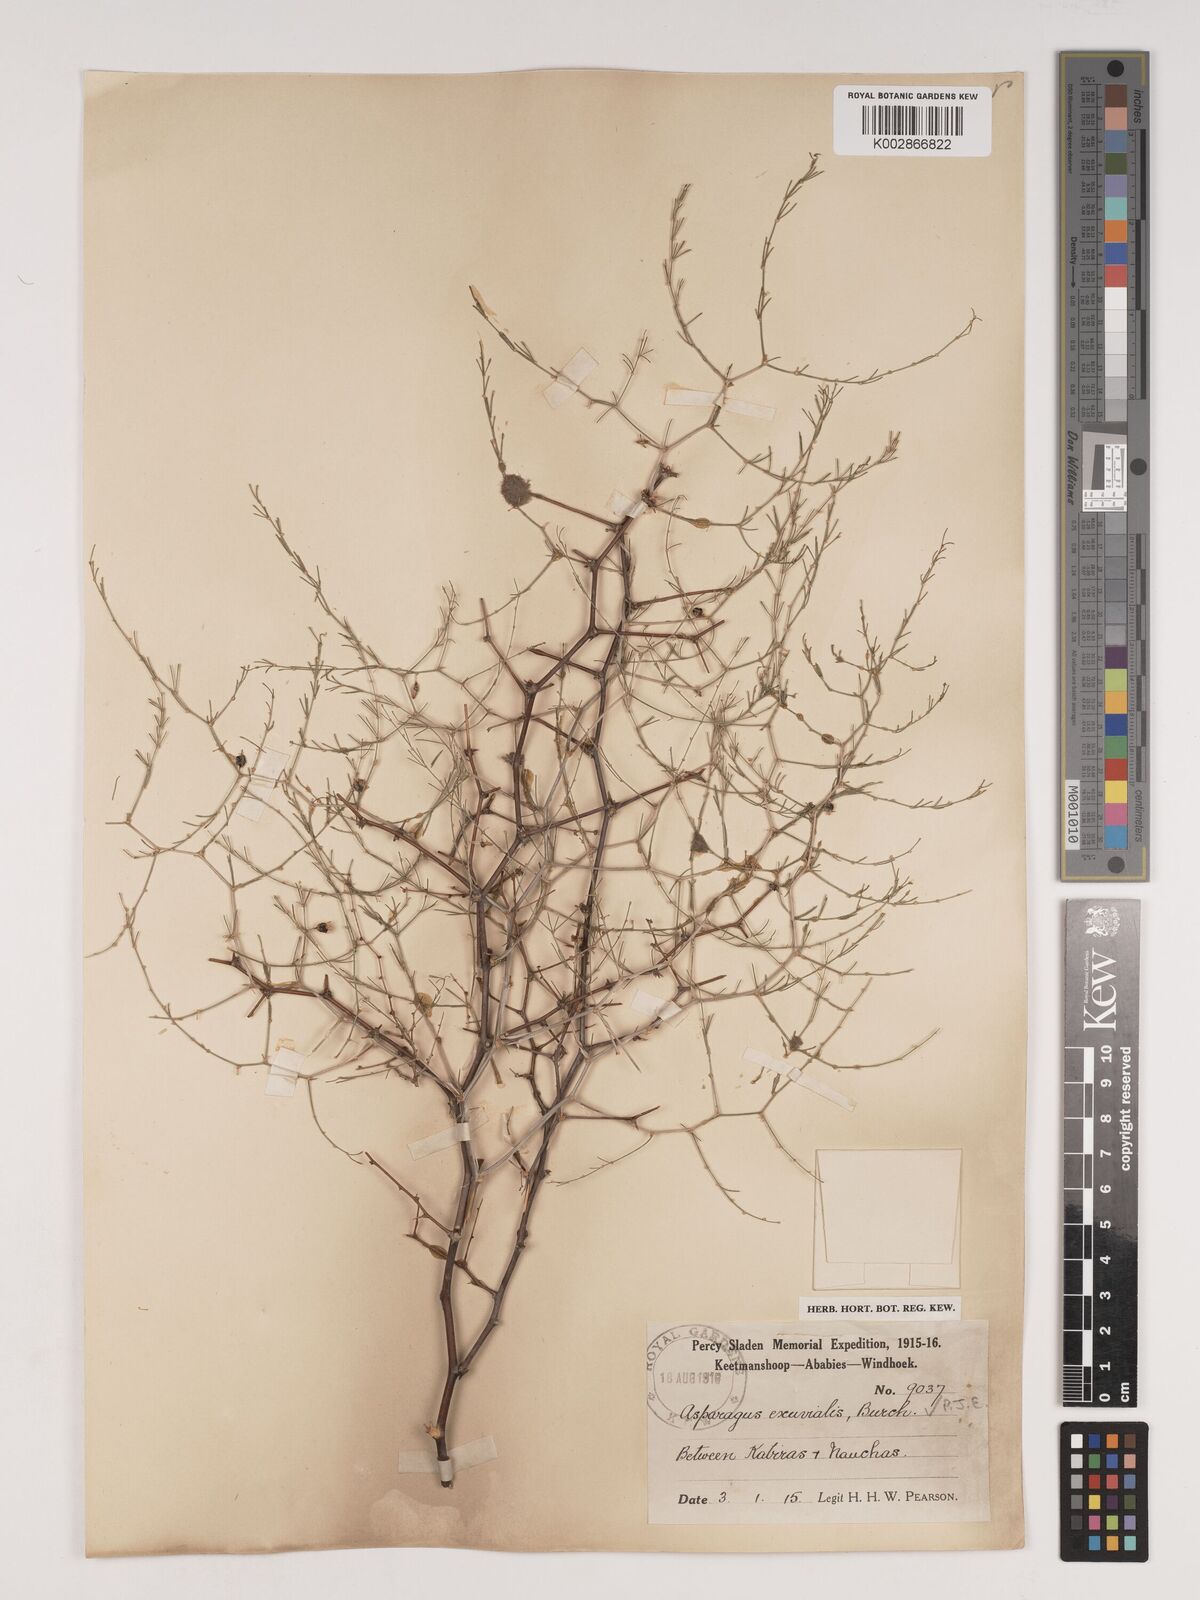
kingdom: Plantae
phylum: Tracheophyta
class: Liliopsida
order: Asparagales
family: Asparagaceae
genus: Asparagus
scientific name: Asparagus exuvialis
